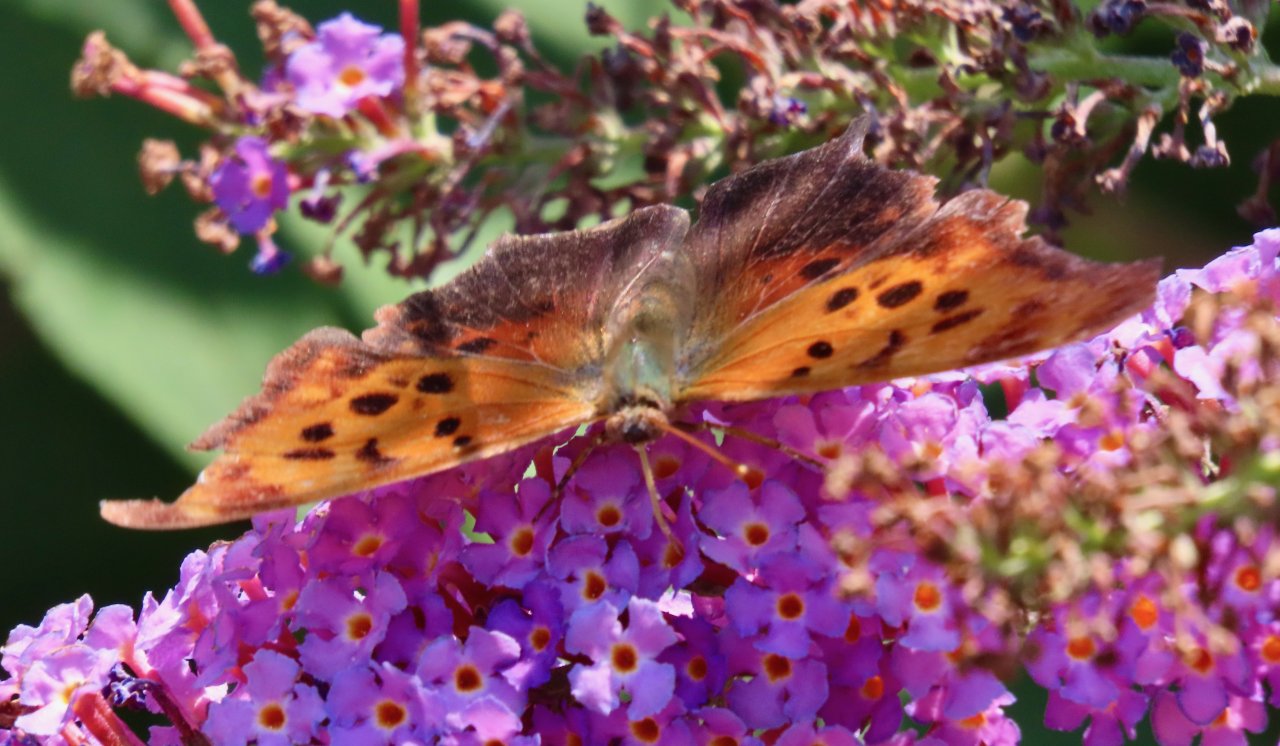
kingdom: Animalia
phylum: Arthropoda
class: Insecta
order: Lepidoptera
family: Nymphalidae
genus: Polygonia
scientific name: Polygonia interrogationis
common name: Question Mark
